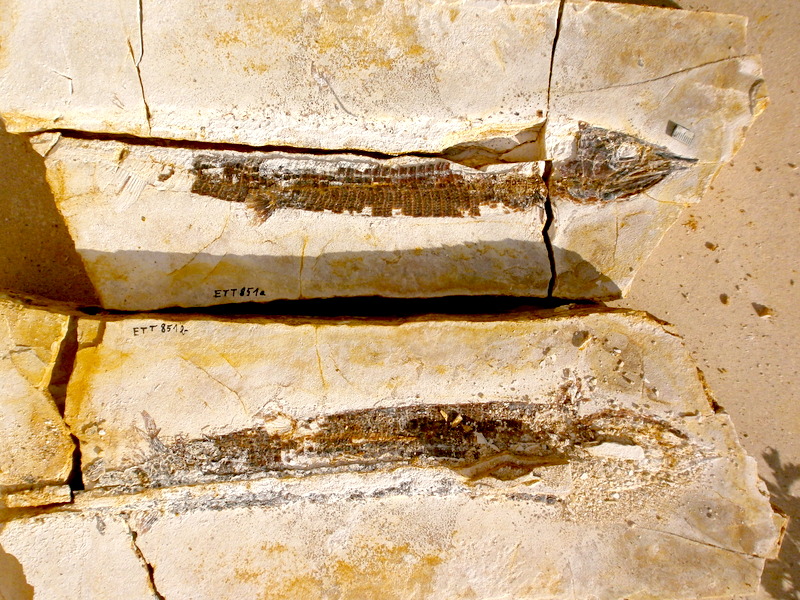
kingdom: Animalia
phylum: Chordata
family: Aspidorhynchidae
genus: Aspidorhynchus
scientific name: Aspidorhynchus sanzenbacheri
